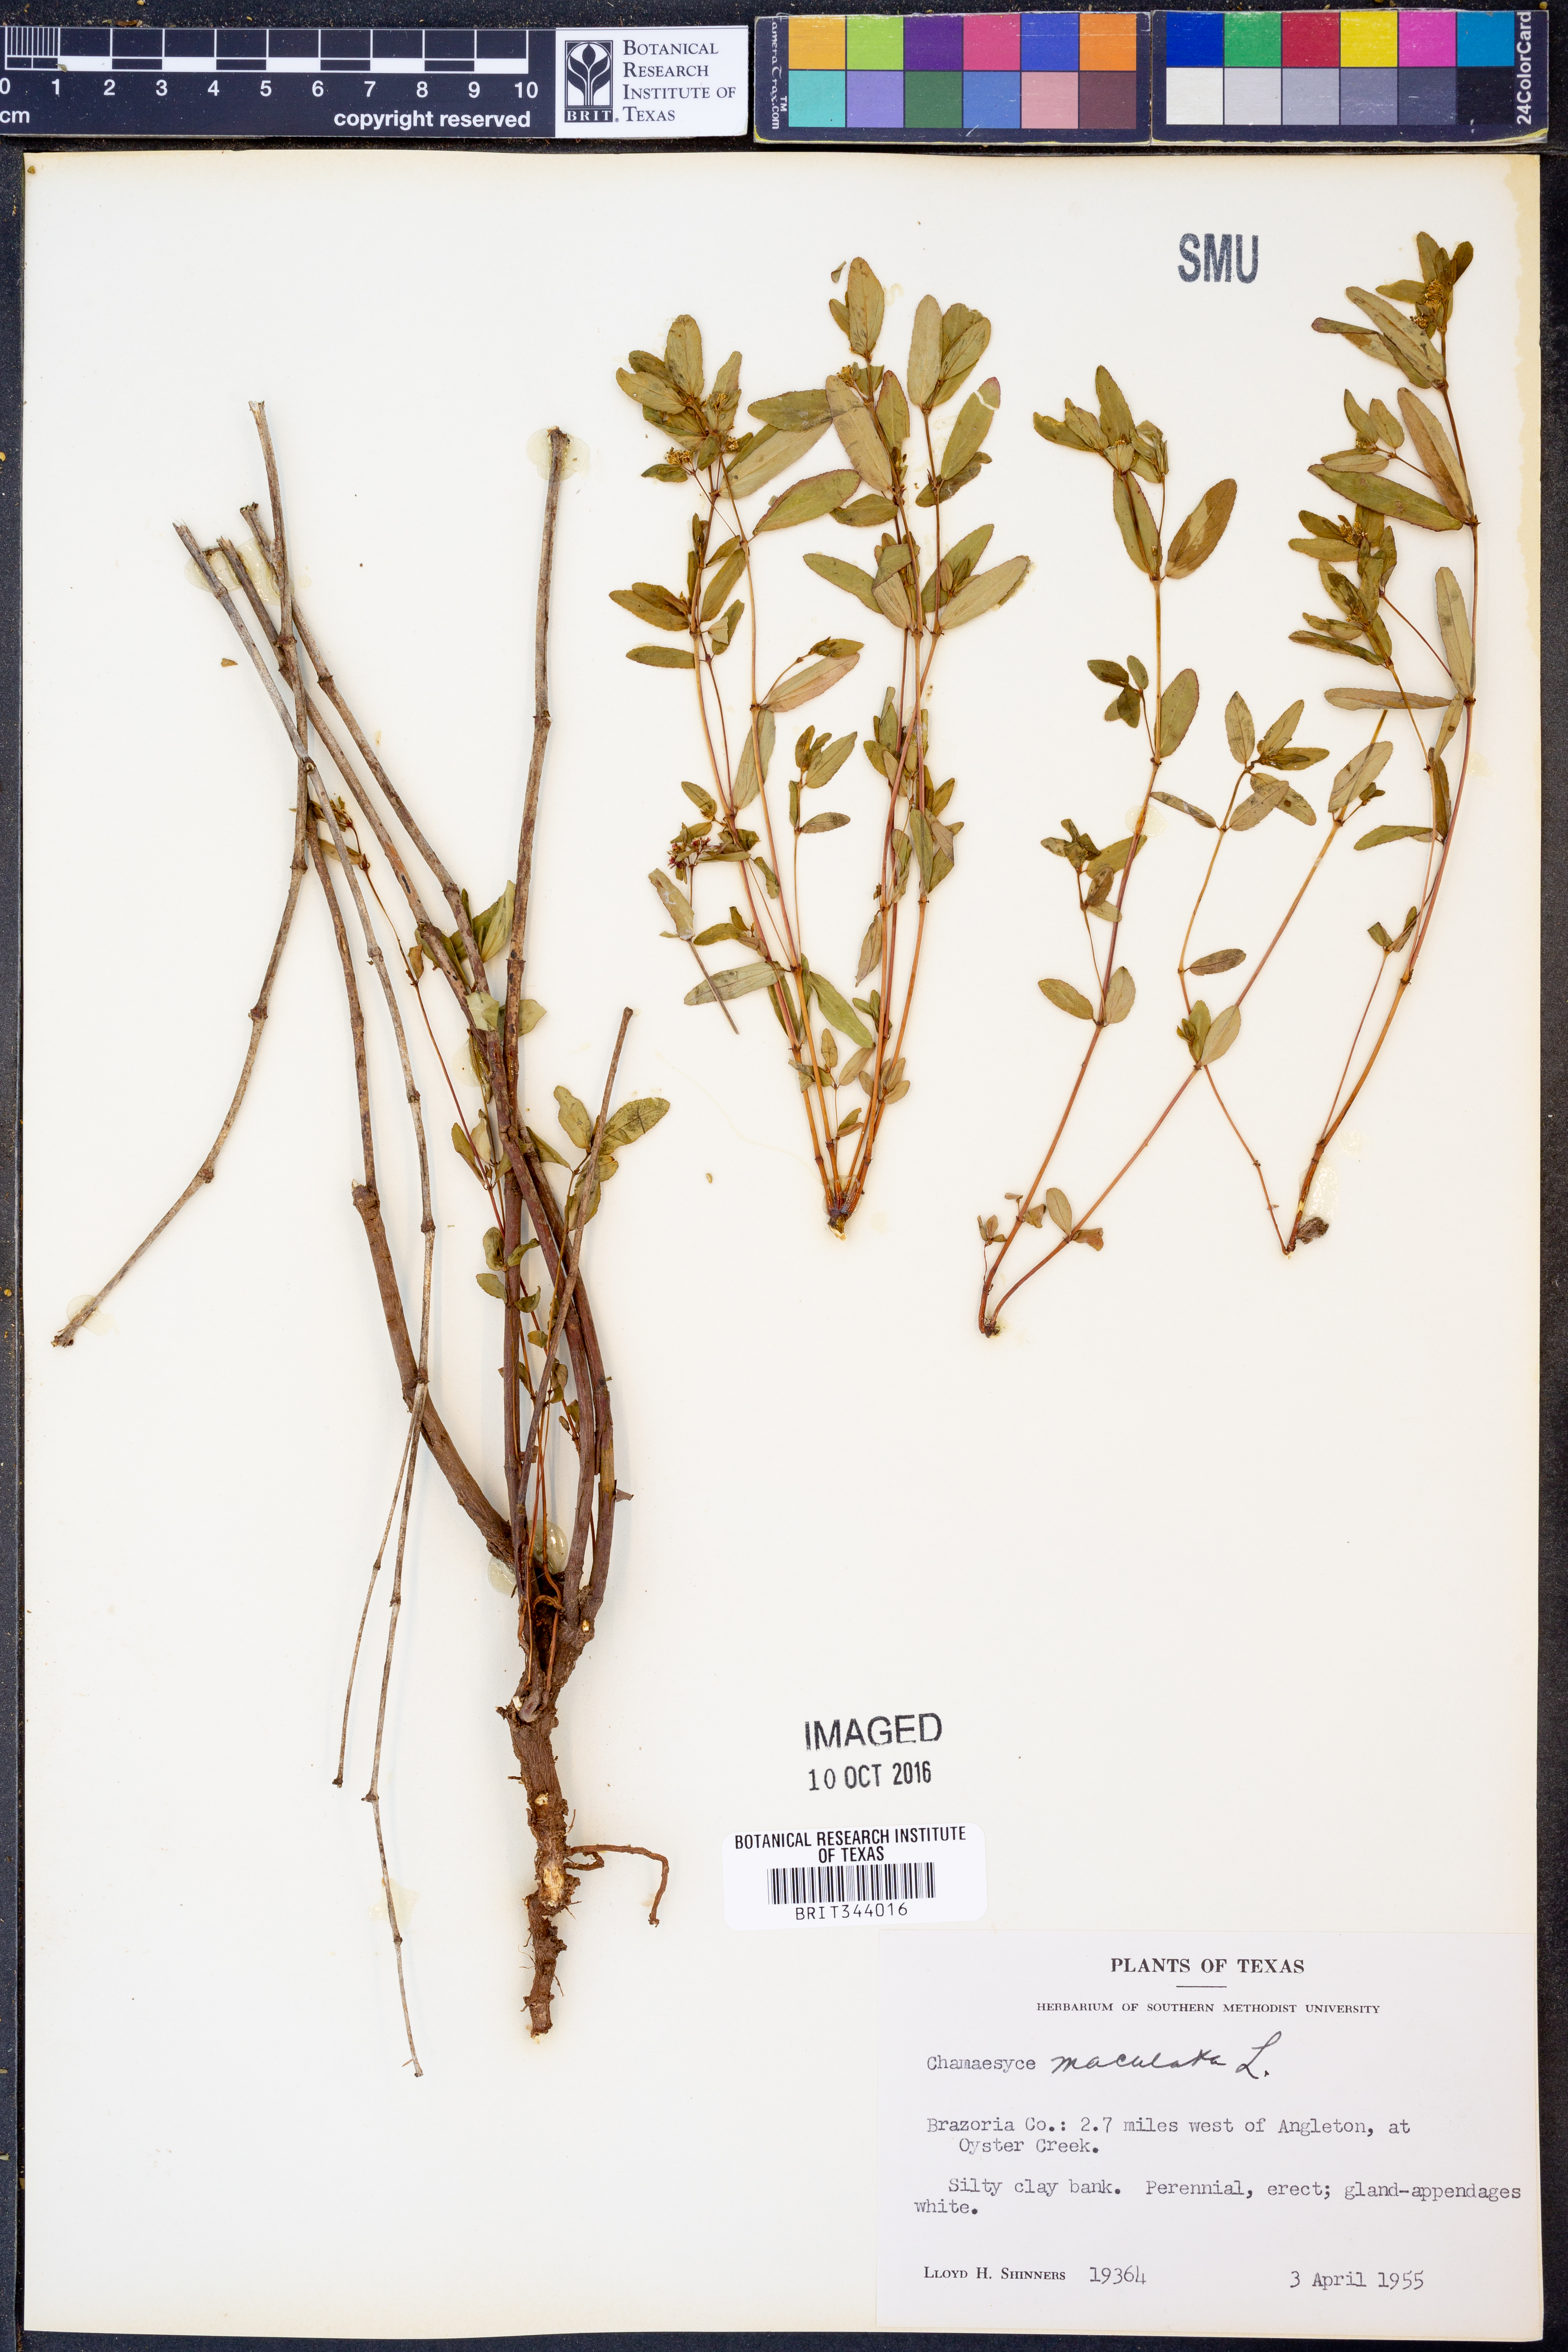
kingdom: Plantae
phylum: Tracheophyta
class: Magnoliopsida
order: Malpighiales
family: Euphorbiaceae
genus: Euphorbia
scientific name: Euphorbia maculata
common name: Spotted spurge
